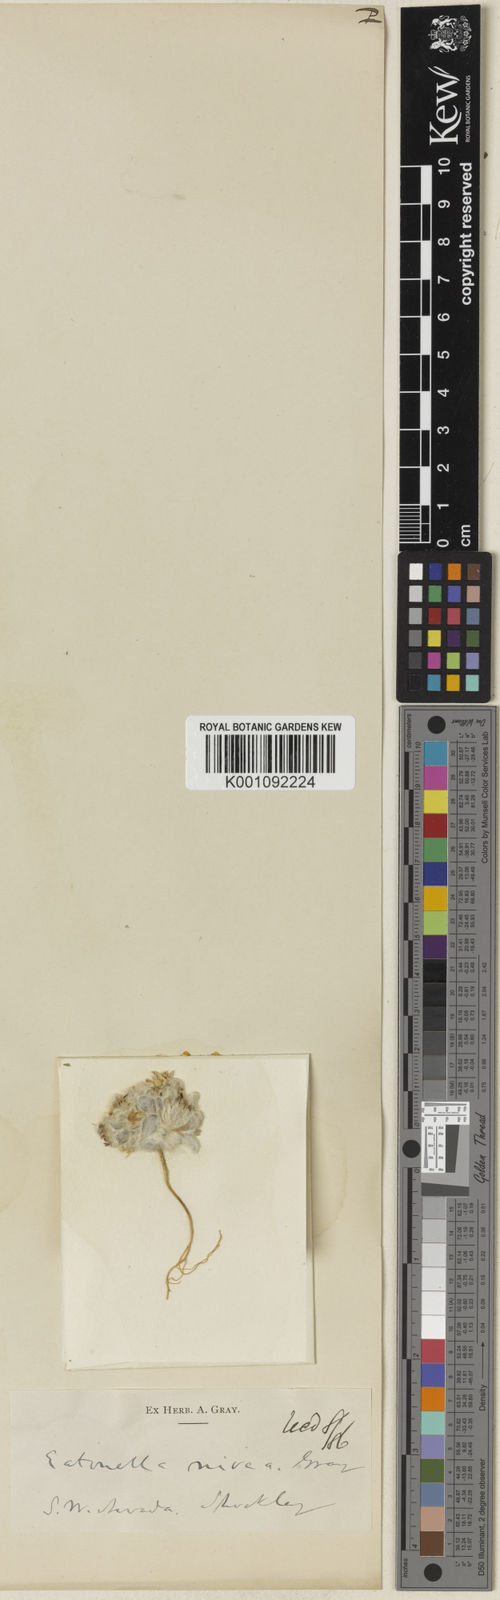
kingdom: Plantae
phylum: Tracheophyta
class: Magnoliopsida
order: Asterales
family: Asteraceae
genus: Eatonella
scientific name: Eatonella nivea
